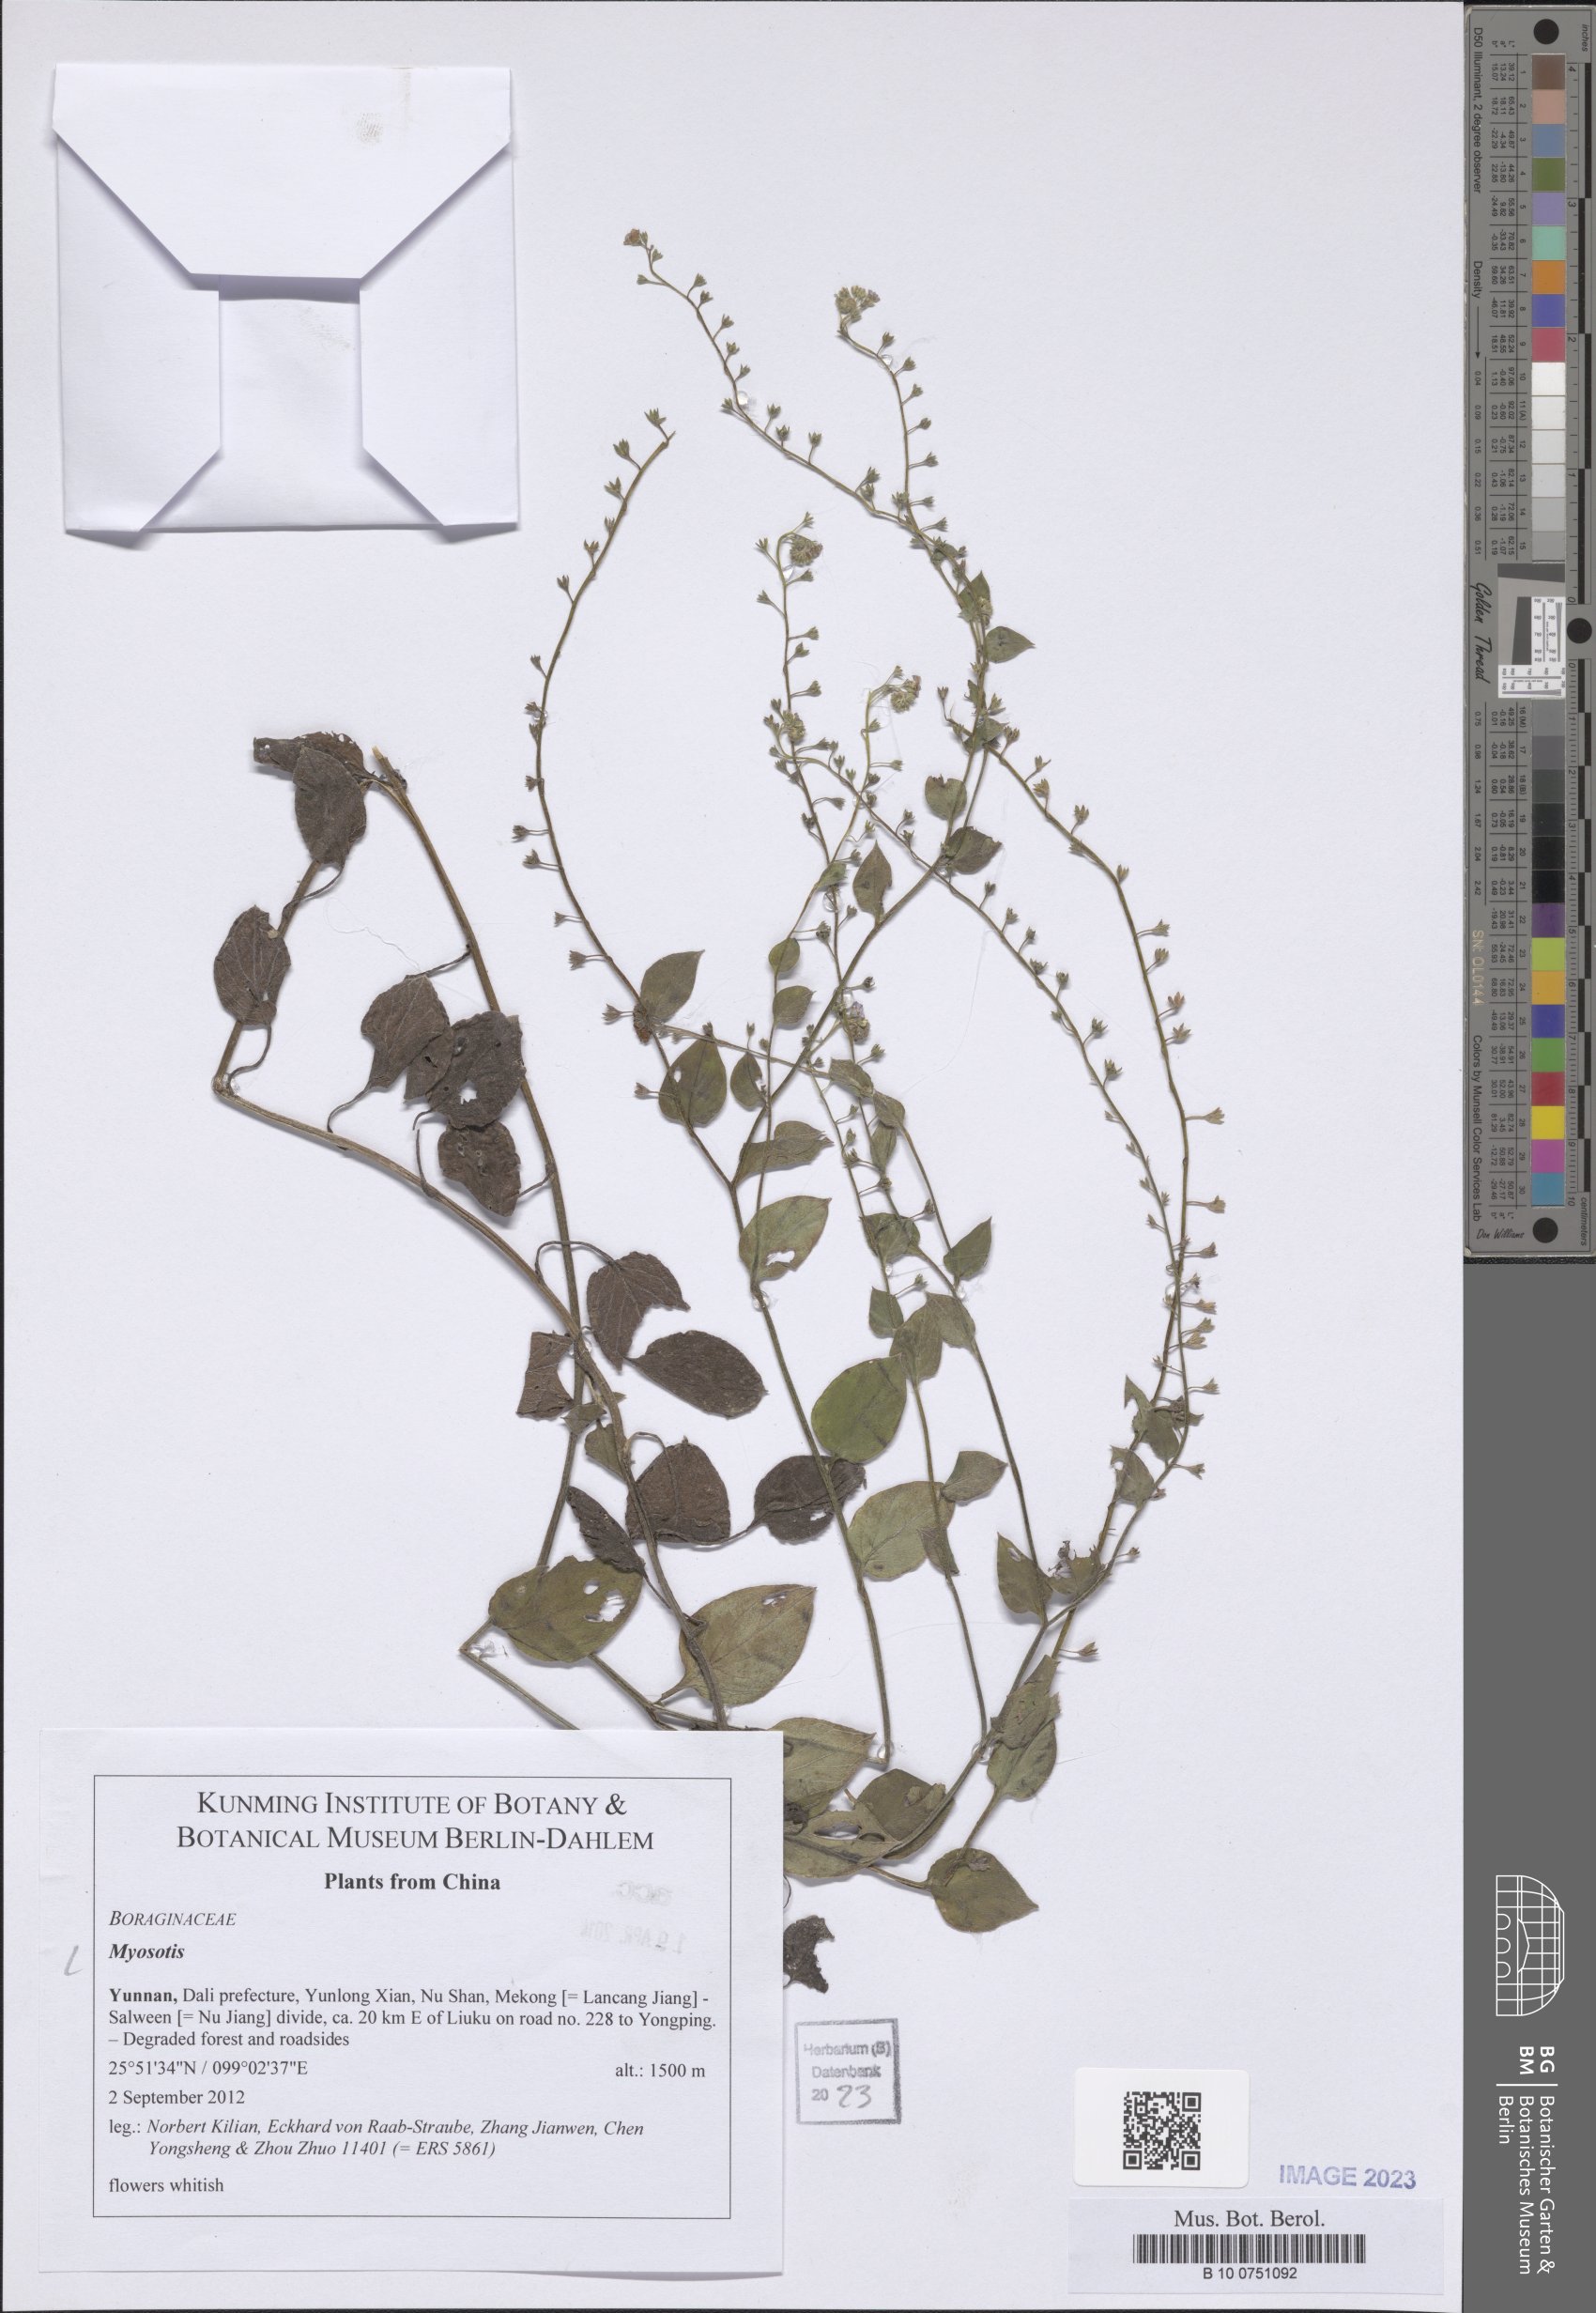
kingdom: Plantae
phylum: Tracheophyta
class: Magnoliopsida
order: Boraginales
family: Boraginaceae
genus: Myosotis
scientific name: Myosotis
